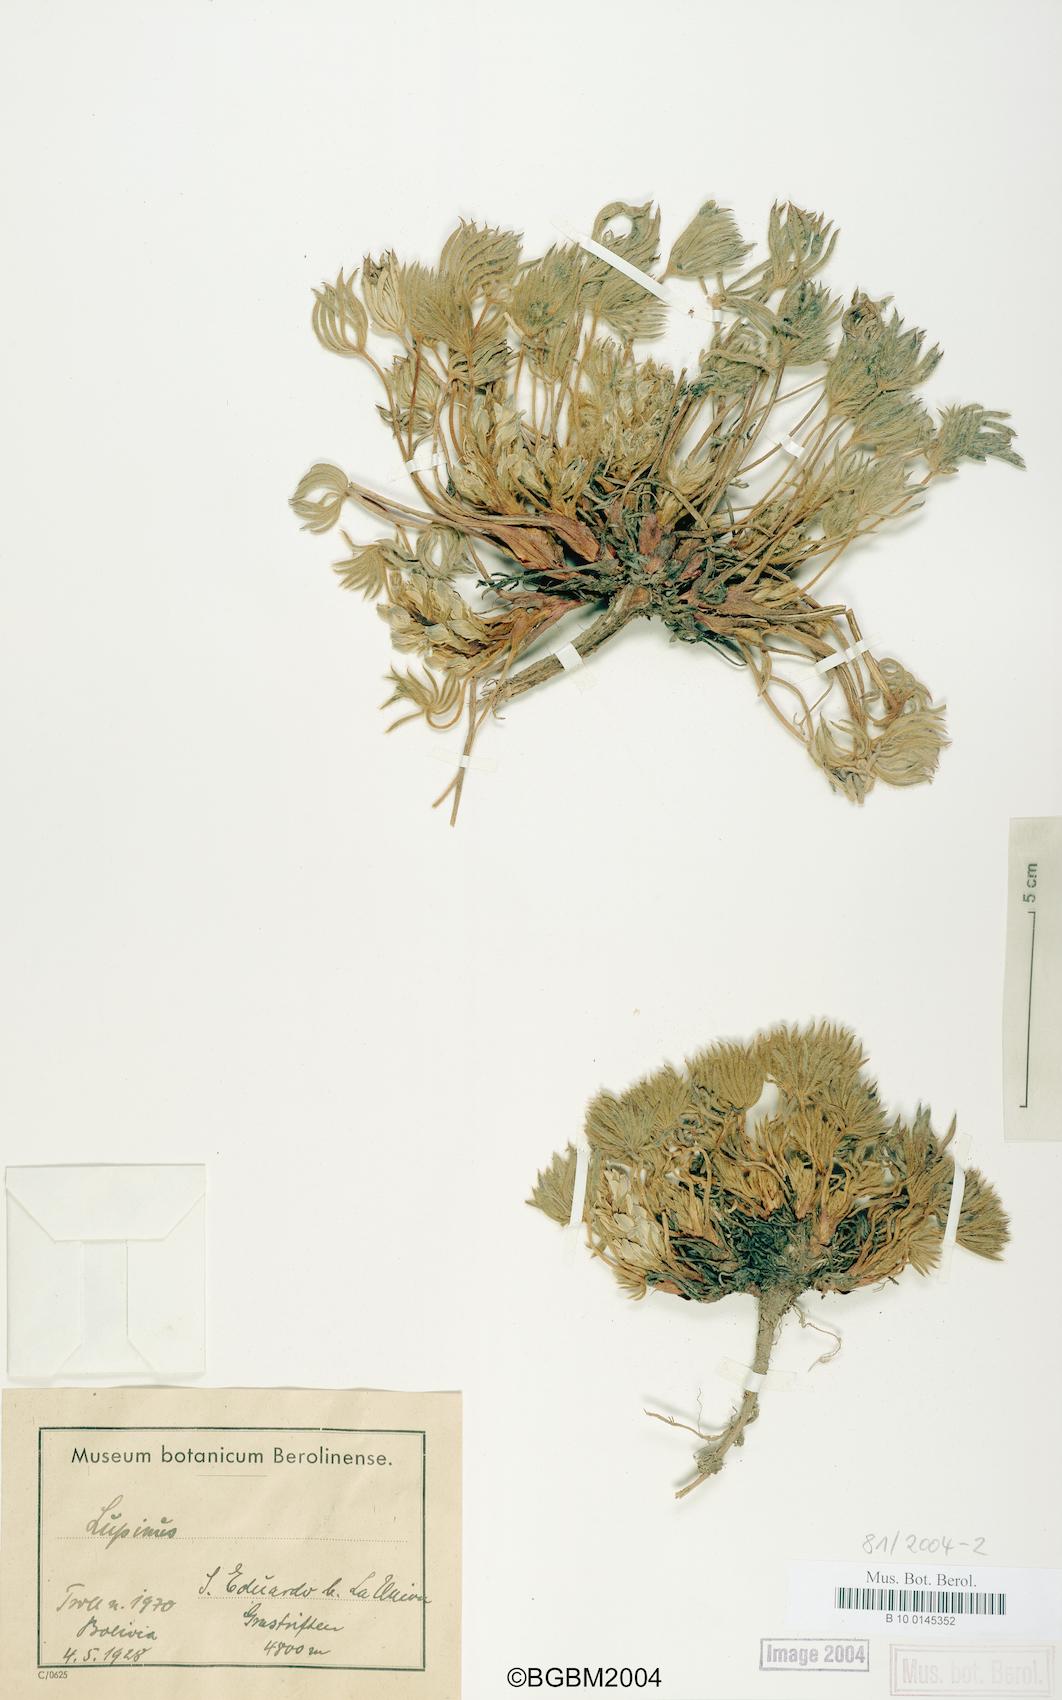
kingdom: Plantae
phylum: Tracheophyta
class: Magnoliopsida
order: Fabales
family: Fabaceae
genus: Lupinus
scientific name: Lupinus
